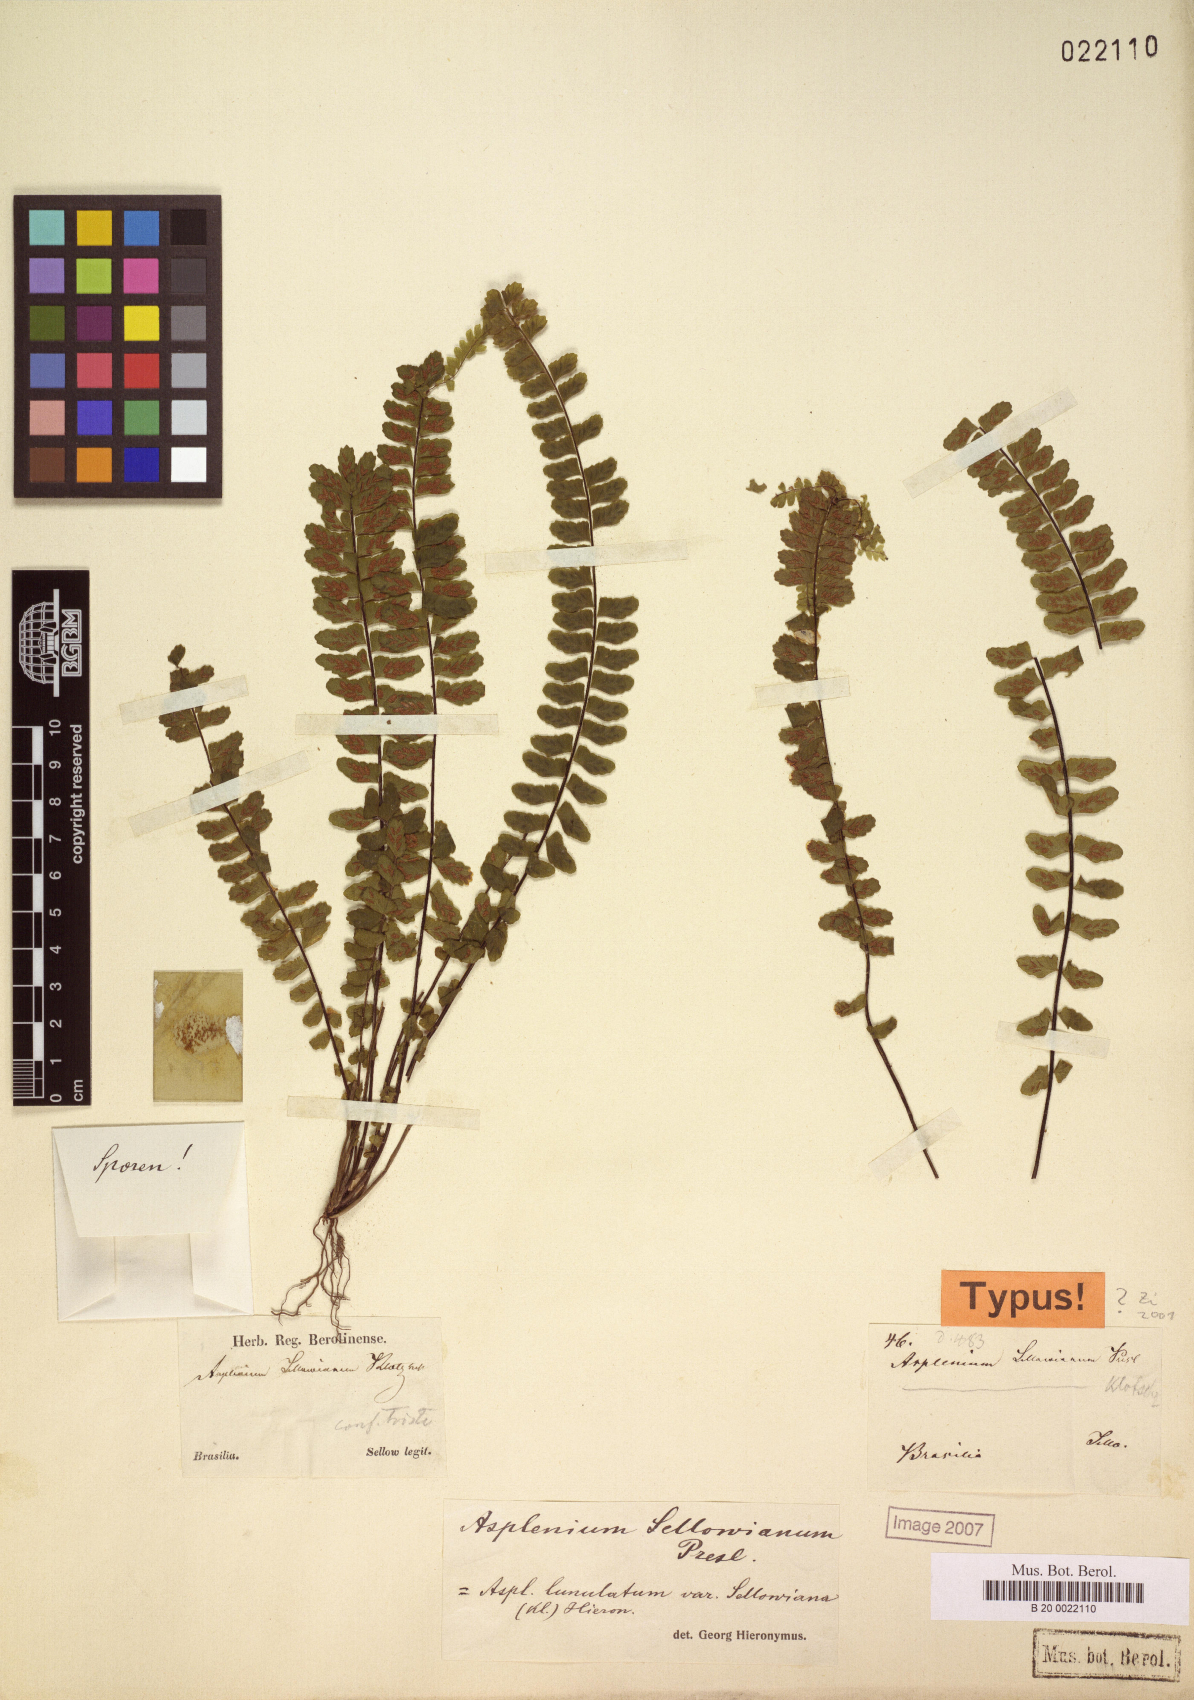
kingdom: Plantae
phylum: Tracheophyta
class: Polypodiopsida
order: Polypodiales
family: Aspleniaceae
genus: Asplenium
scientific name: Asplenium sellowianum
